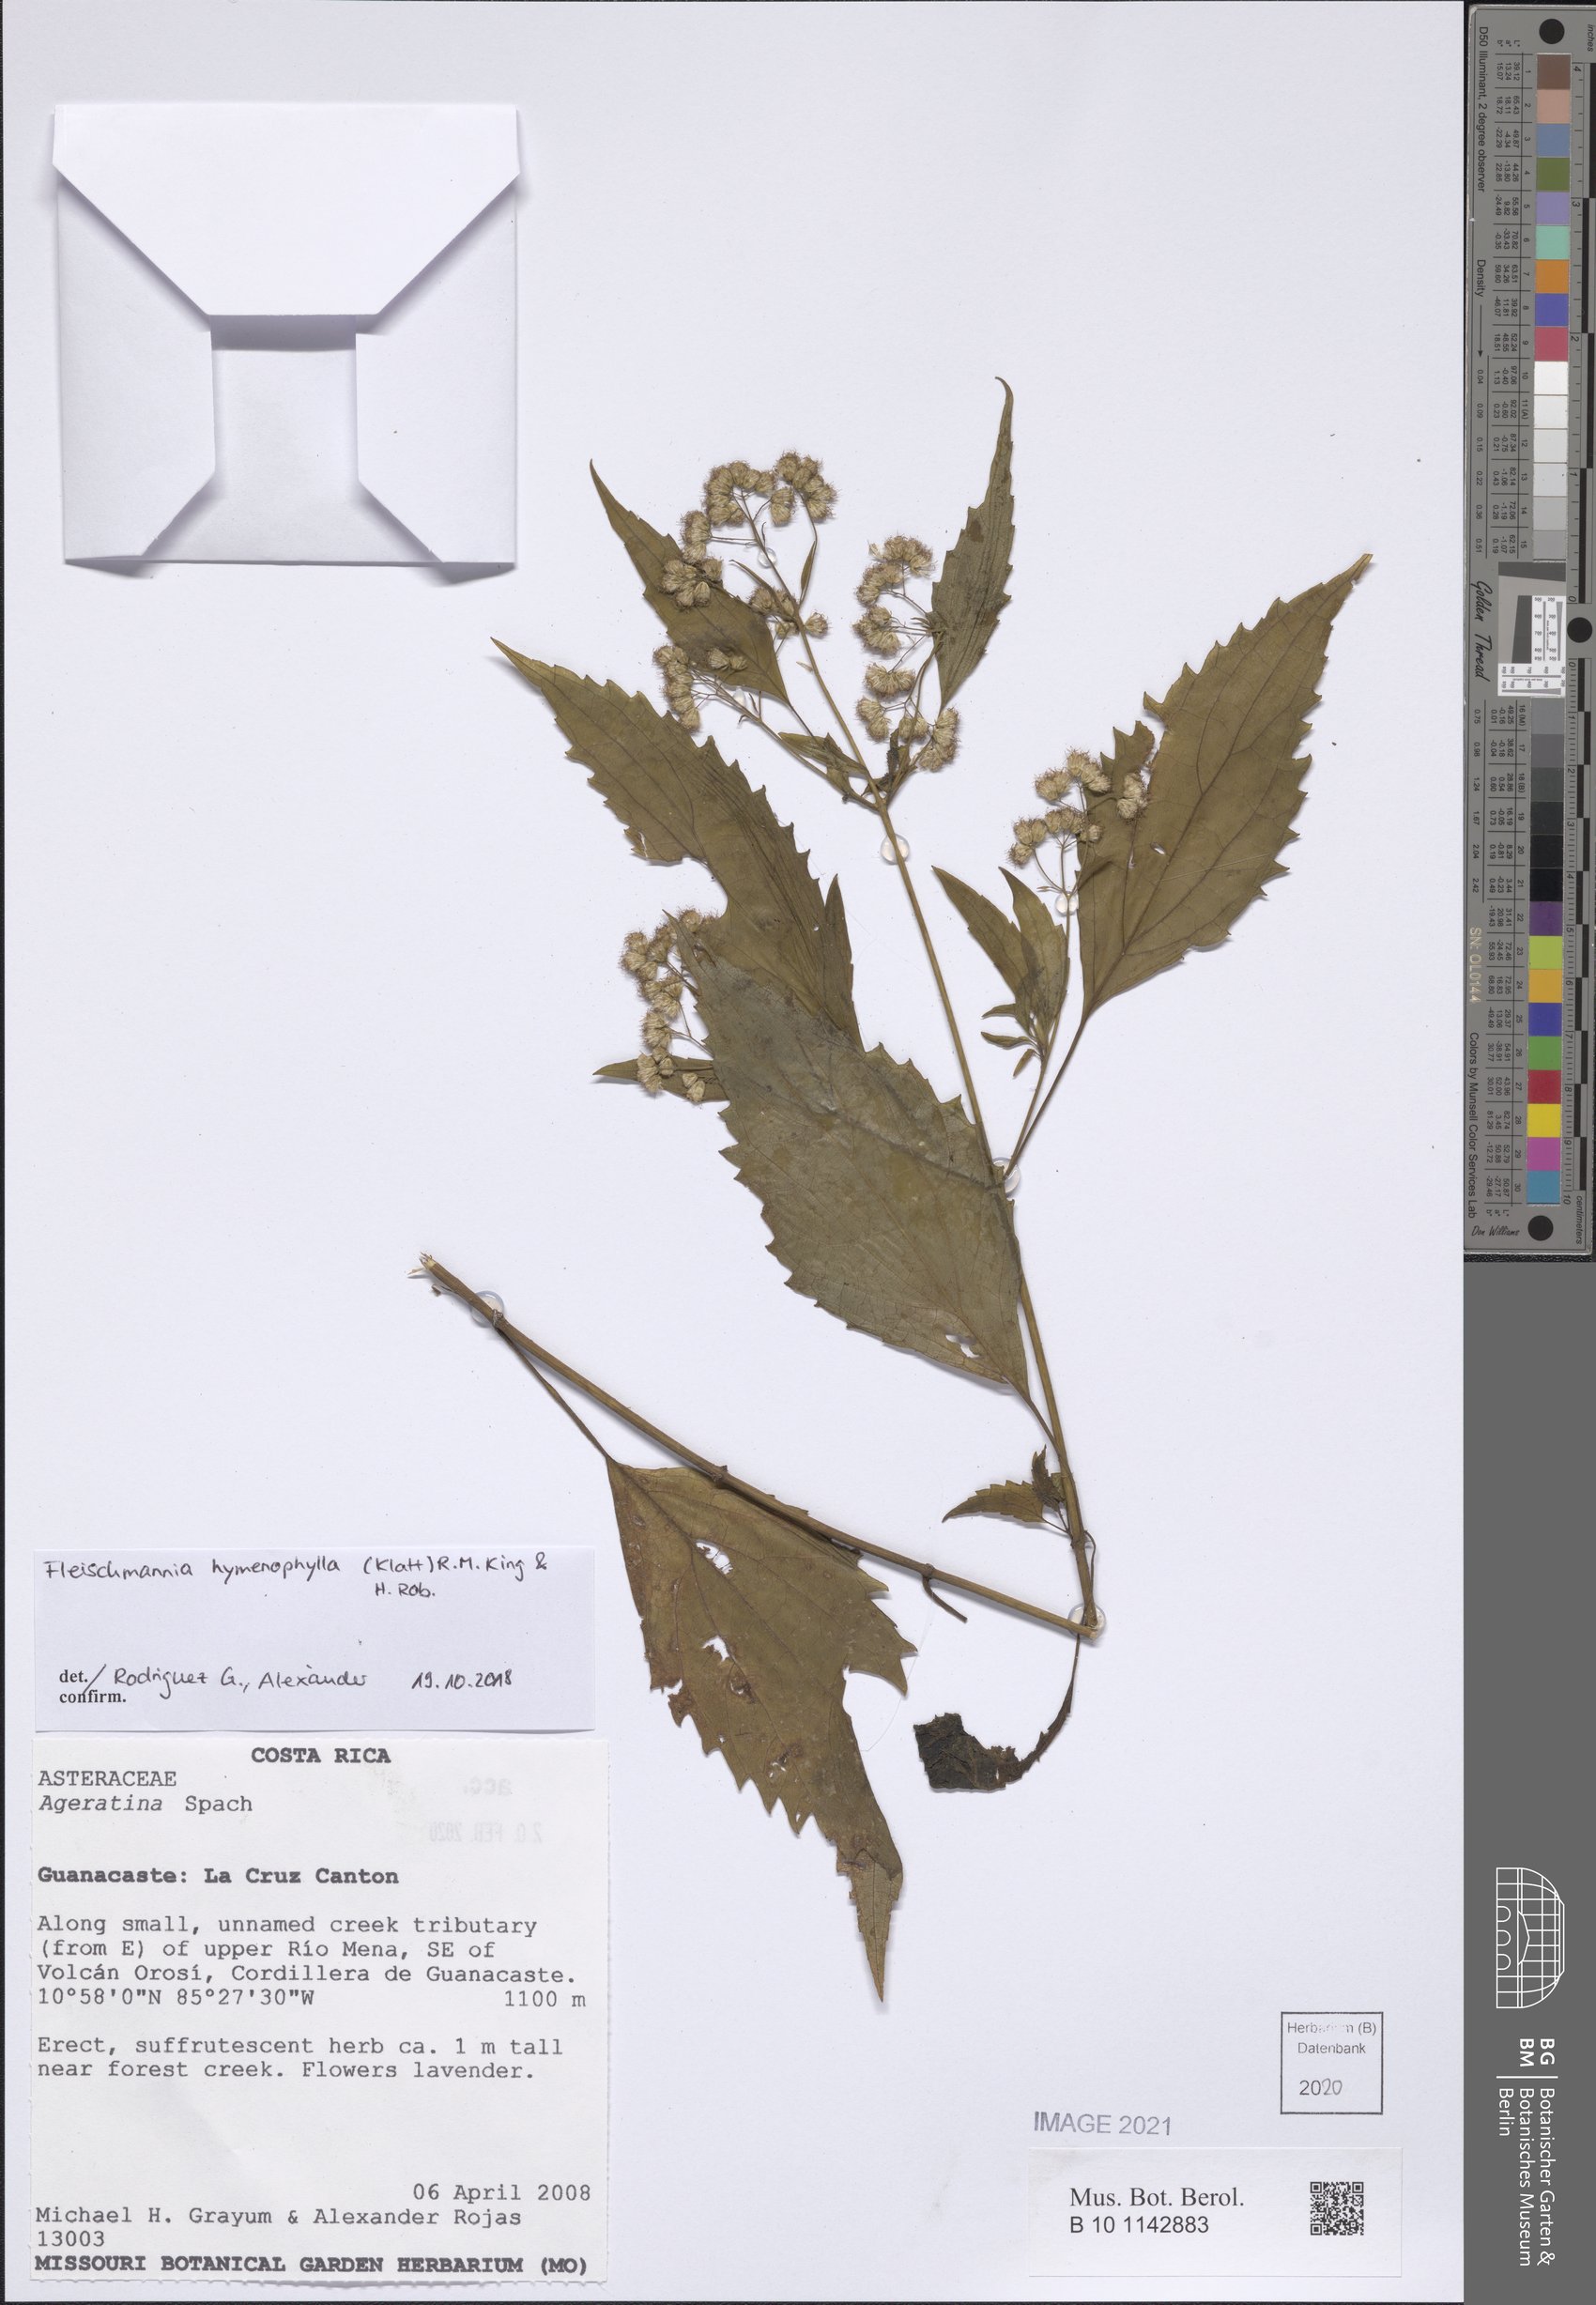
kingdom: Plantae
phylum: Tracheophyta
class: Magnoliopsida
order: Asterales
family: Asteraceae
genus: Fleischmannia
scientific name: Fleischmannia hymenophylla
